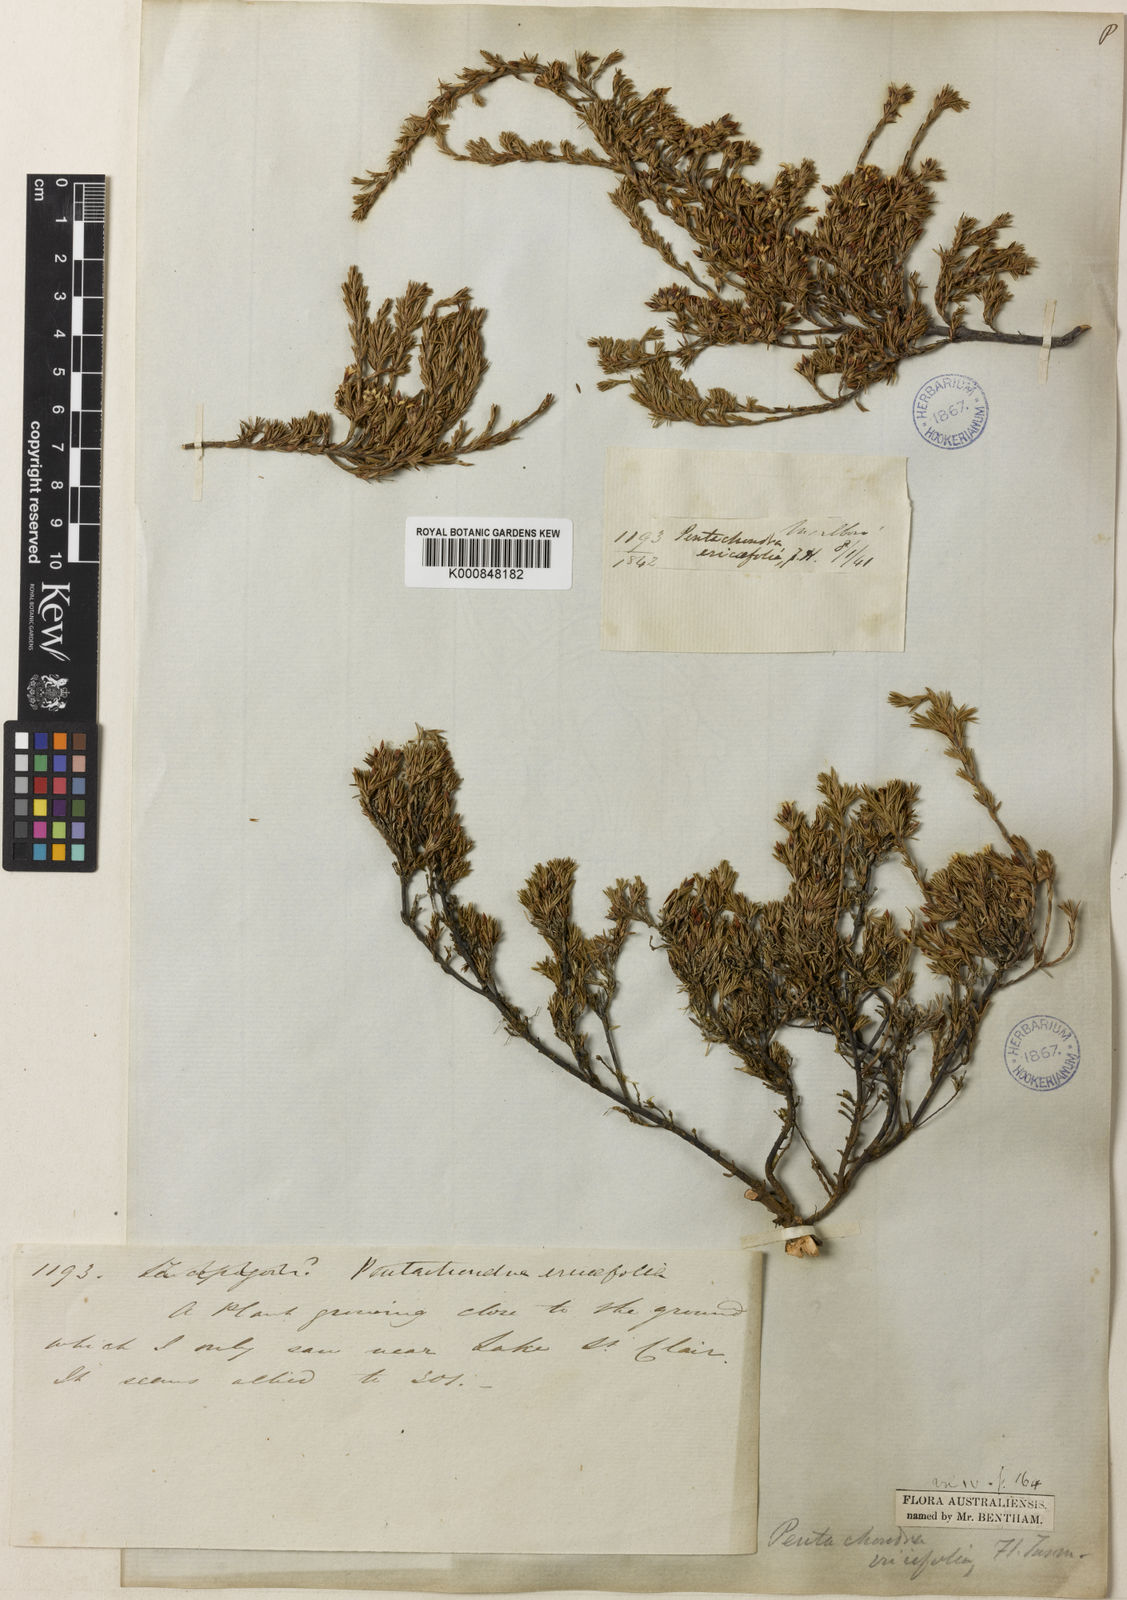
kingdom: Plantae
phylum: Tracheophyta
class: Magnoliopsida
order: Ericales
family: Ericaceae
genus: Pentachondra
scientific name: Pentachondra ericifolia
